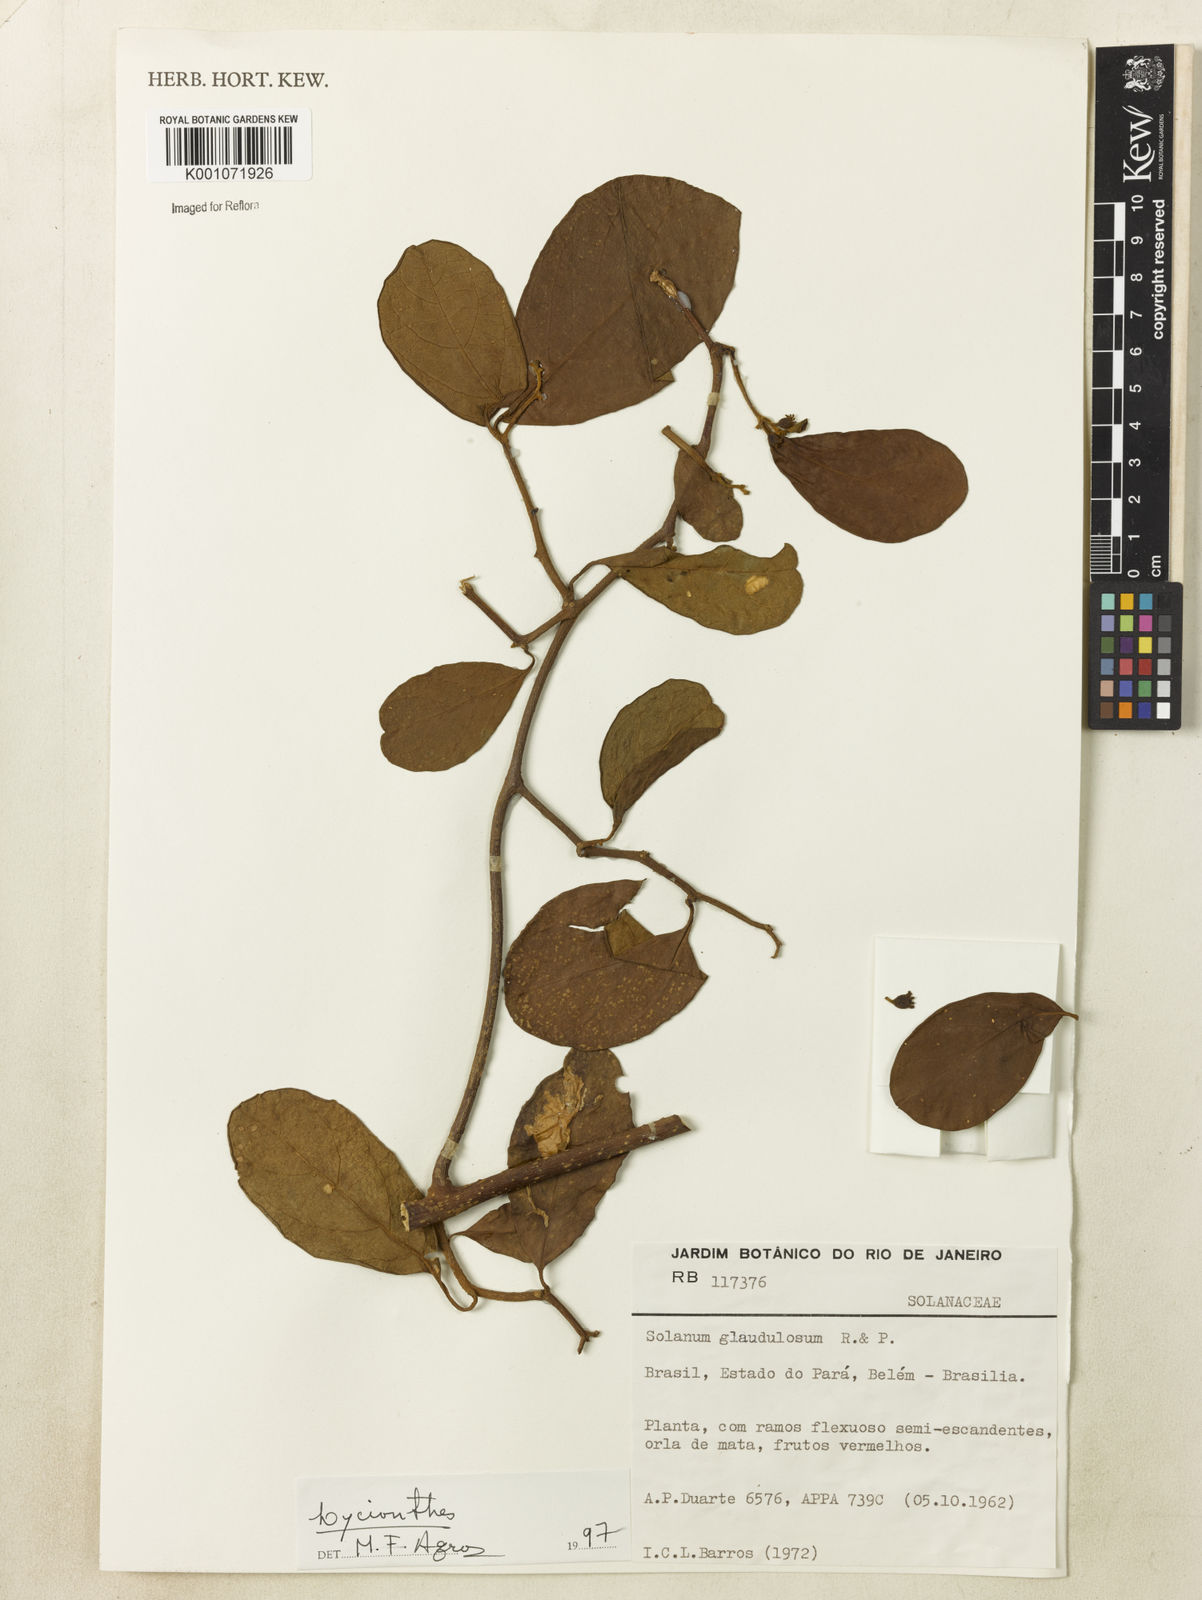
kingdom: Plantae
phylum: Tracheophyta
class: Magnoliopsida
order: Solanales
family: Solanaceae
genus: Lycianthes
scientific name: Lycianthes
